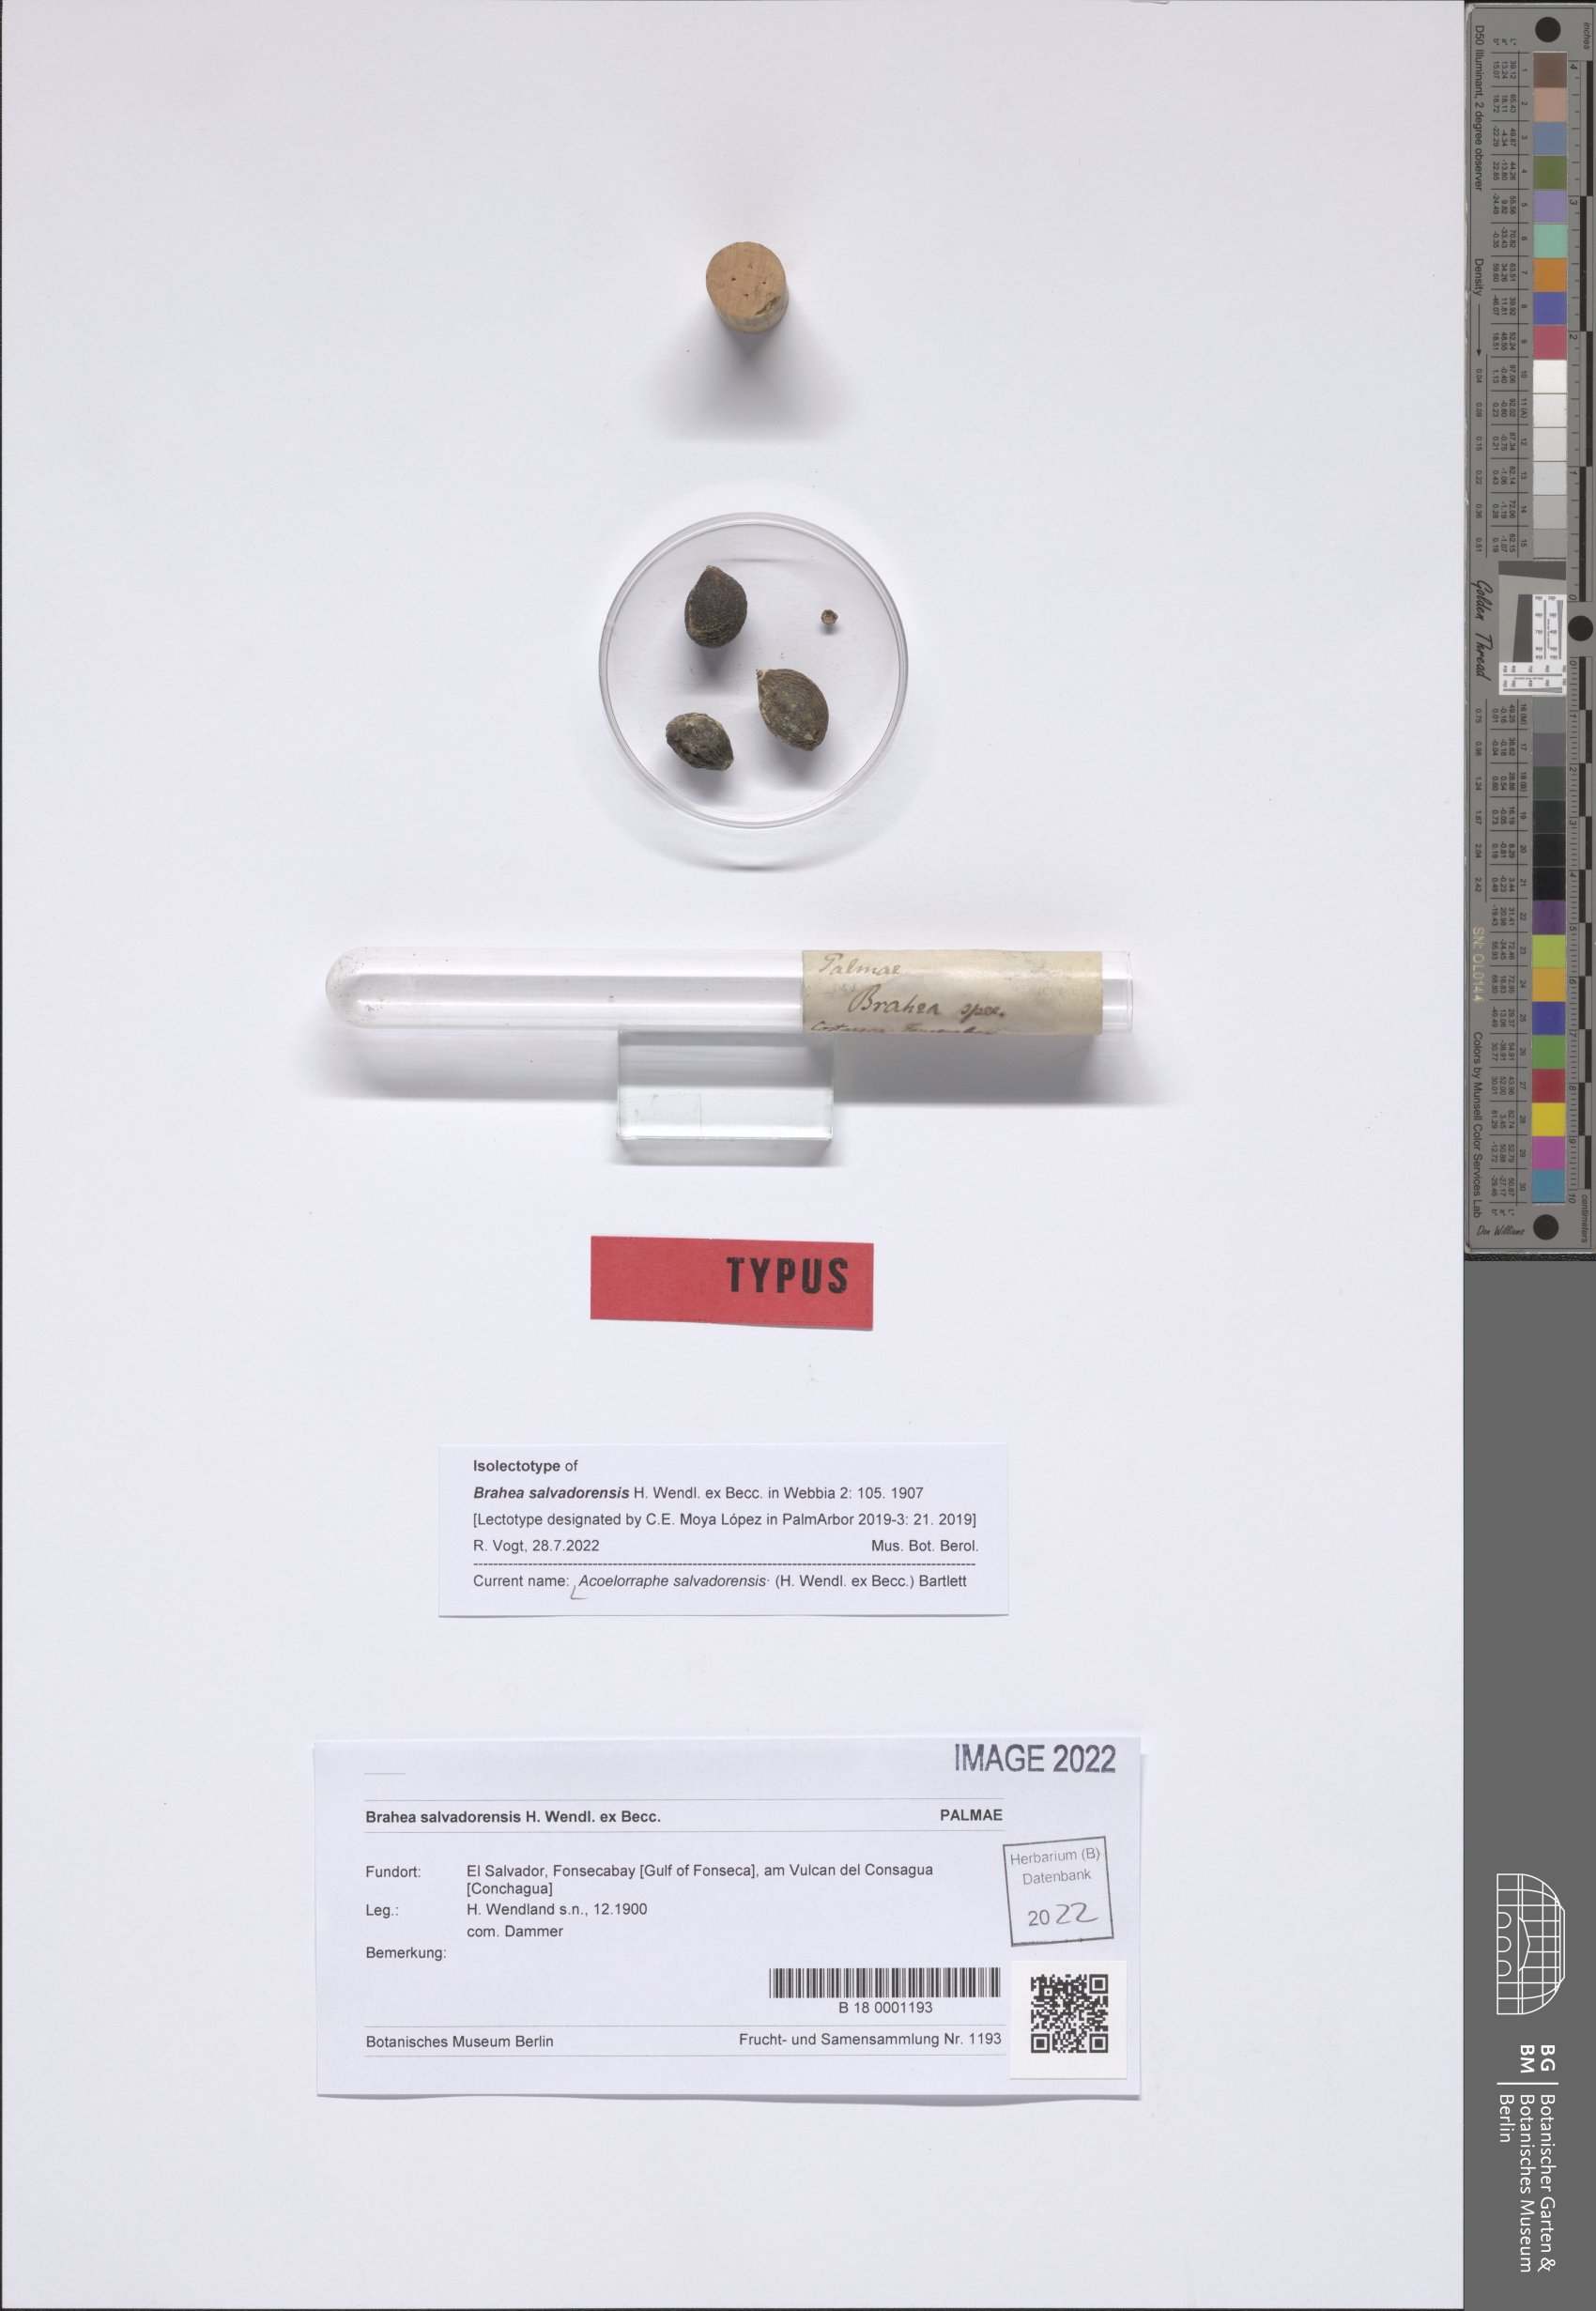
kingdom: Plantae
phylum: Tracheophyta
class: Liliopsida
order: Arecales
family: Arecaceae
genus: Brahea
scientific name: Brahea salvadorensis
